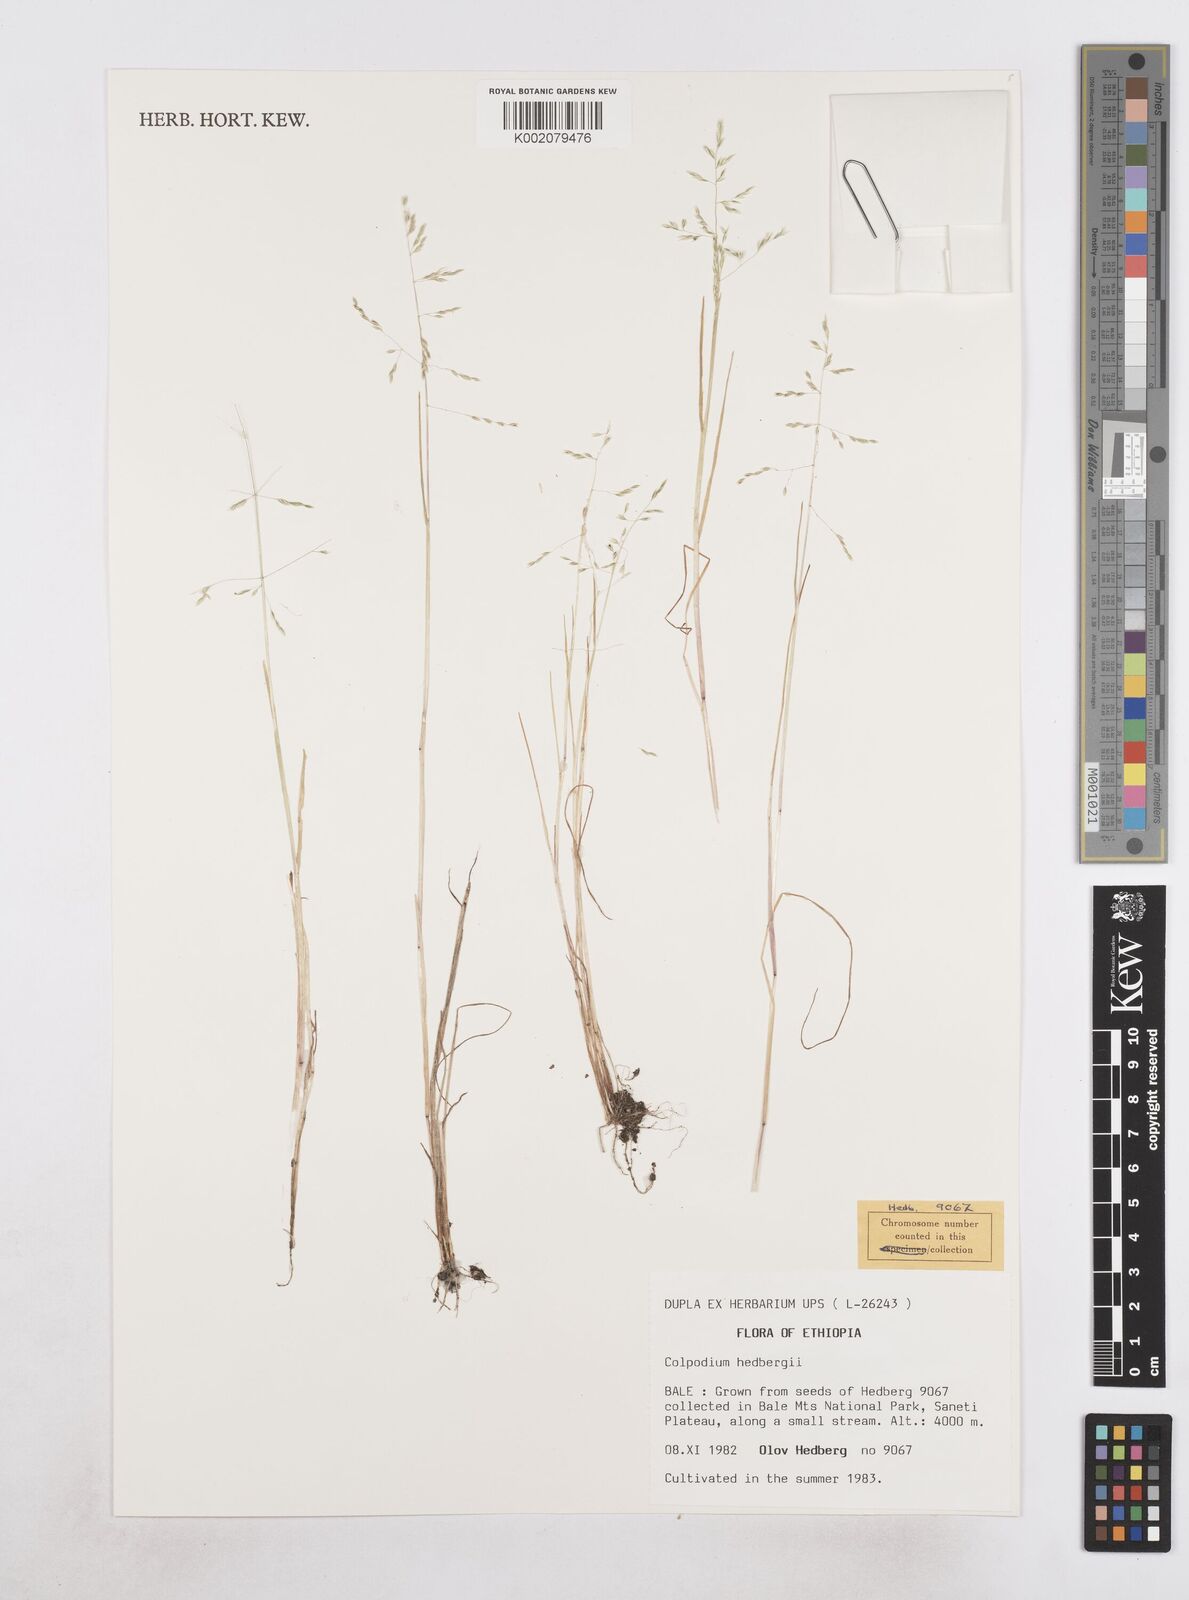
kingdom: Plantae
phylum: Tracheophyta
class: Liliopsida
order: Poales
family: Poaceae
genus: Colpodium
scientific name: Colpodium hedbergii
